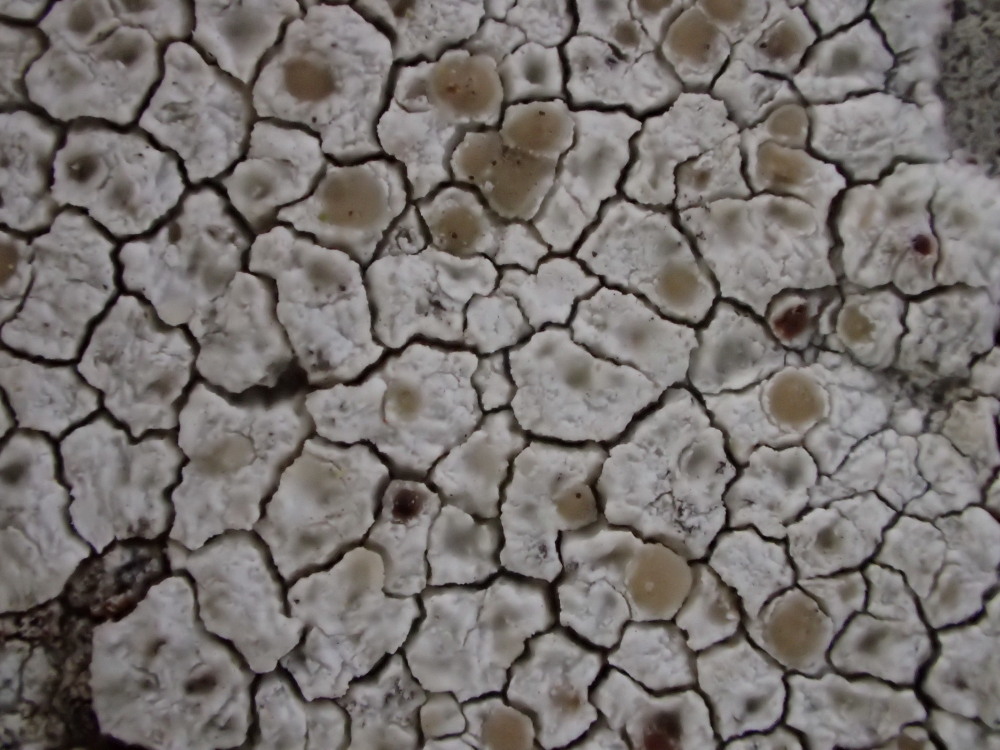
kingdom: Fungi
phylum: Ascomycota
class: Lecanoromycetes
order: Lecanorales
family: Lecanoraceae
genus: Polyozosia
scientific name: Polyozosia albescens
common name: cement-kantskivelav
